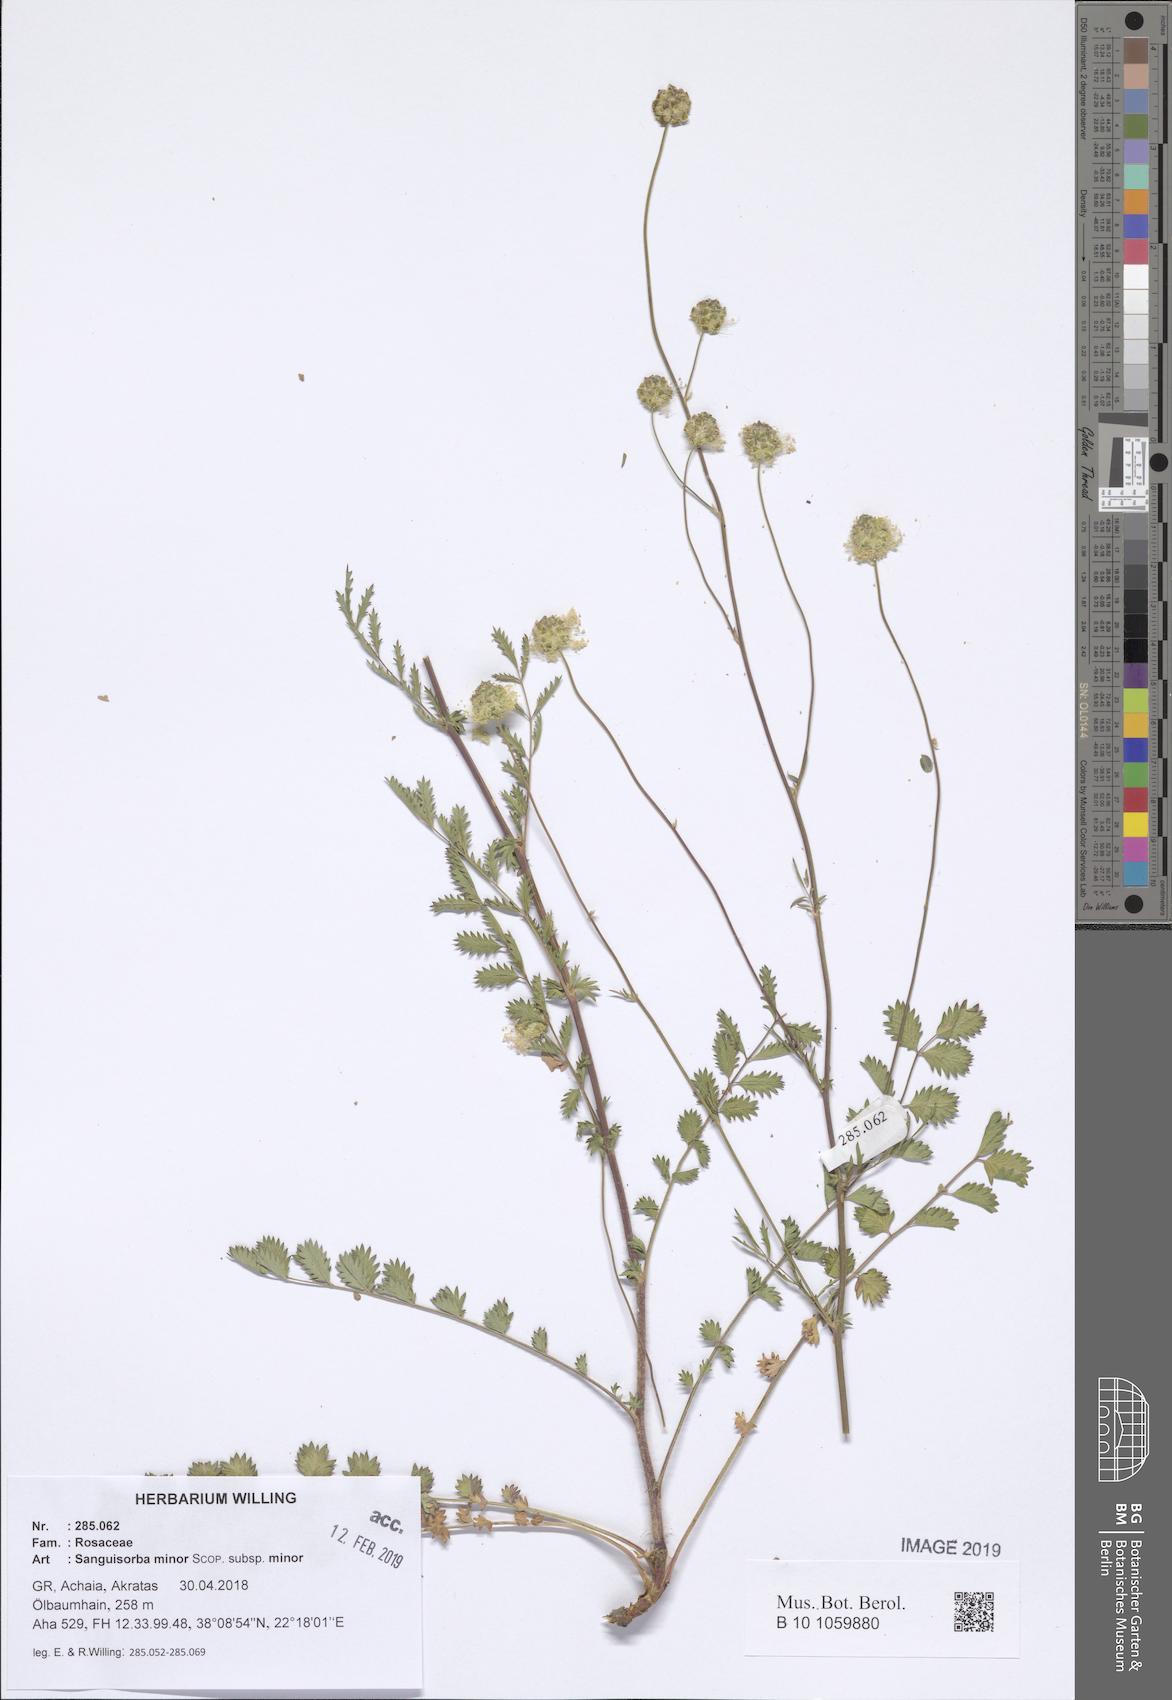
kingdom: Plantae
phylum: Tracheophyta
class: Magnoliopsida
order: Rosales
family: Rosaceae
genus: Poterium
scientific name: Poterium sanguisorba
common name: Salad burnet
